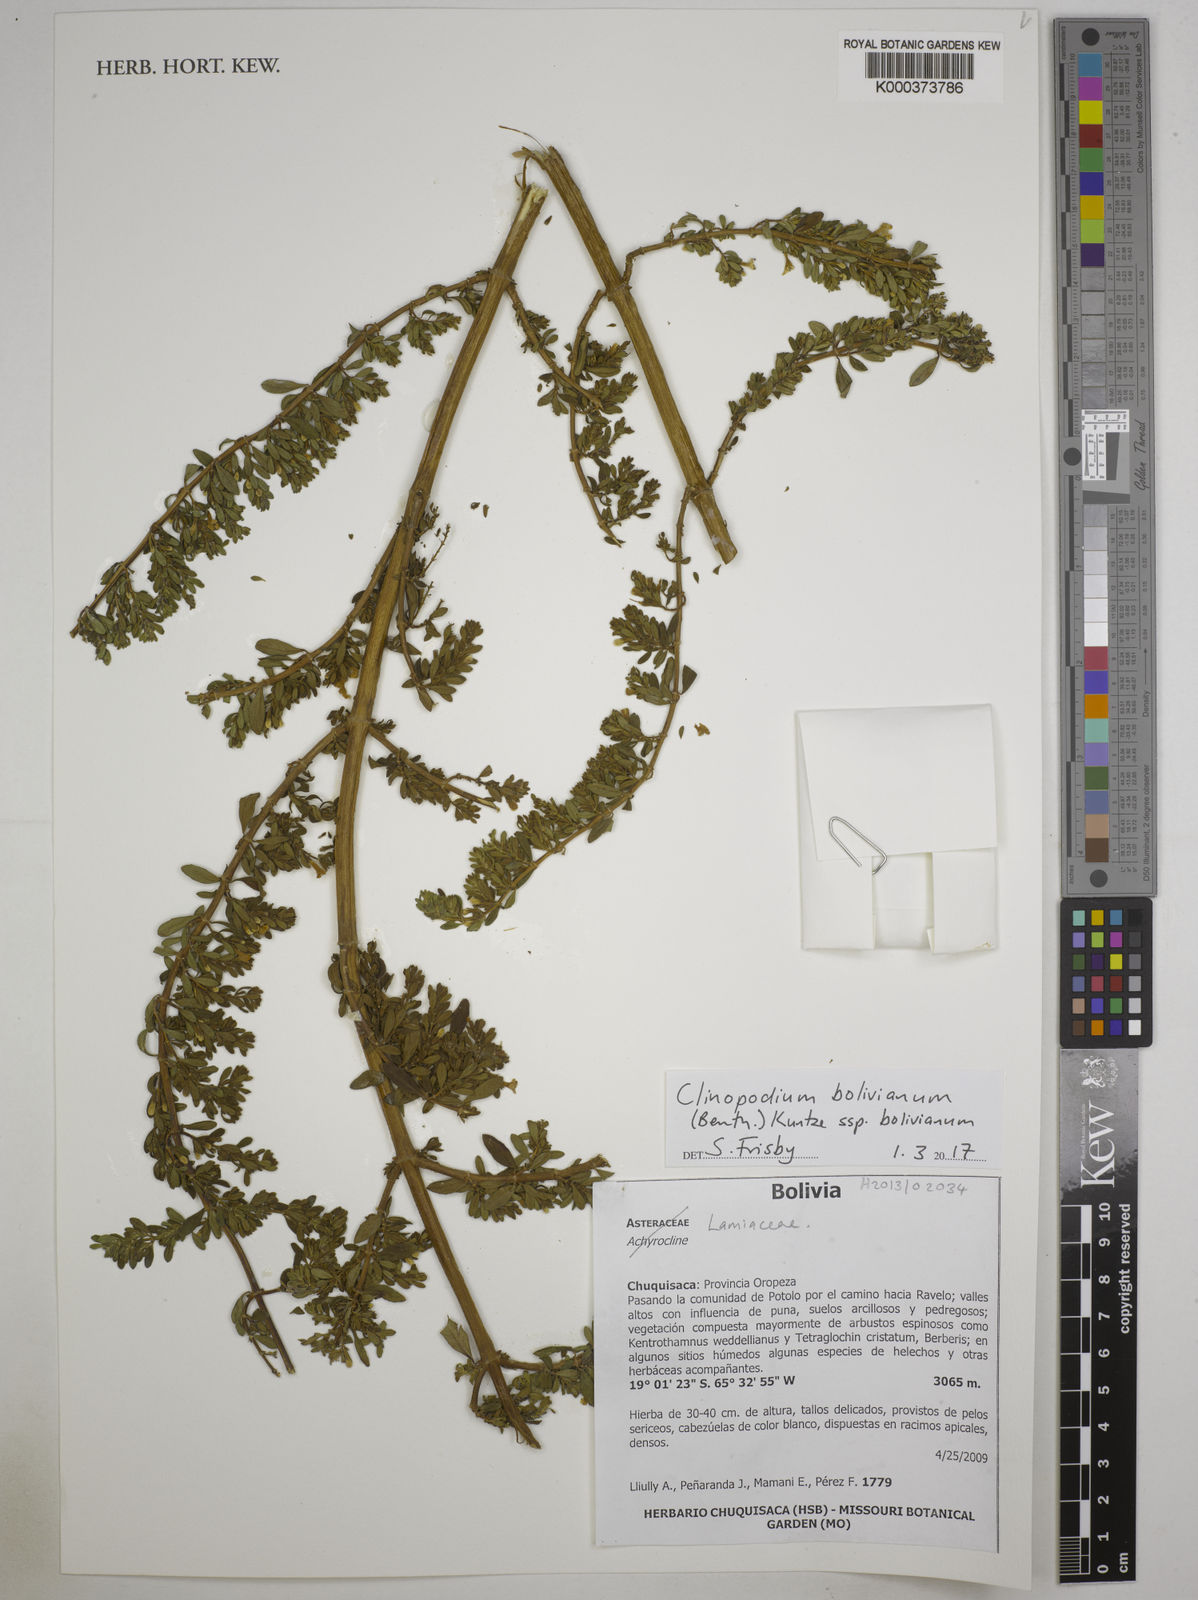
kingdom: Plantae
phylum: Tracheophyta
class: Magnoliopsida
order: Lamiales
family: Lamiaceae
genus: Clinopodium
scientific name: Clinopodium bolivianum
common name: Inca muña
